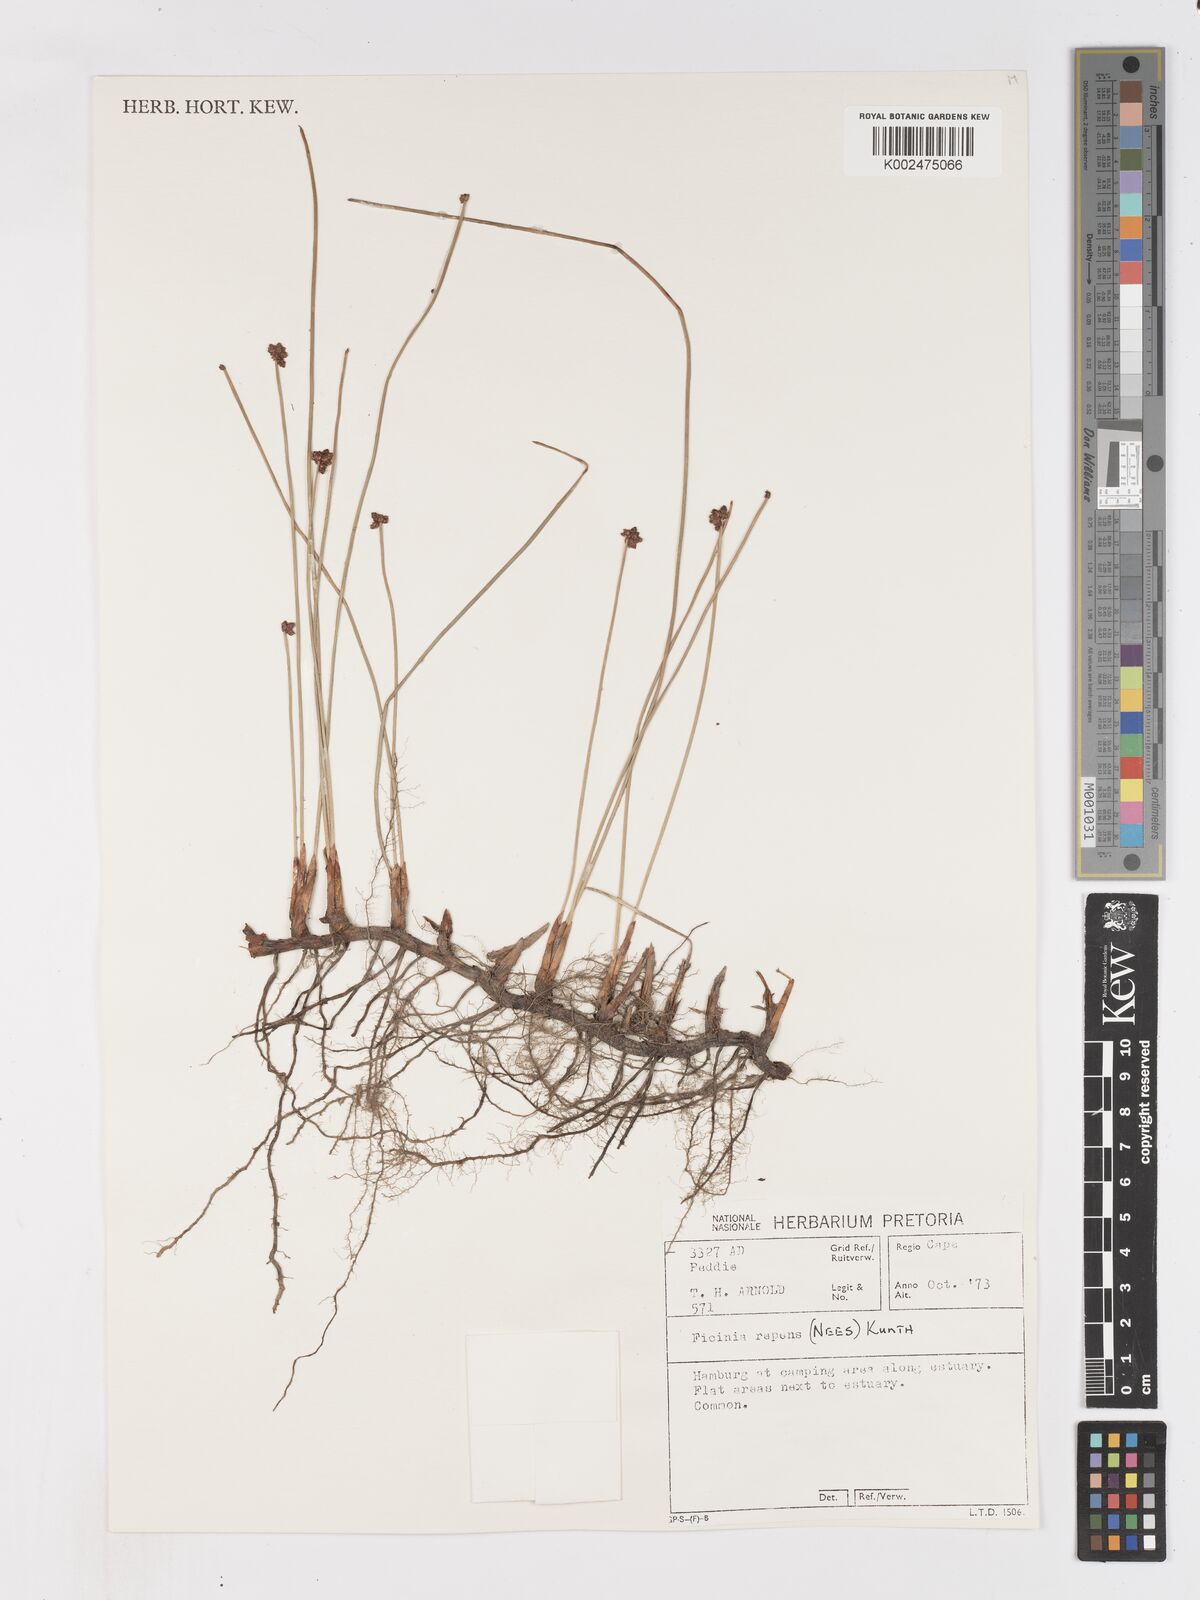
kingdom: Plantae
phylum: Tracheophyta
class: Liliopsida
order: Poales
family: Cyperaceae
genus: Ficinia
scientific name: Ficinia repens
